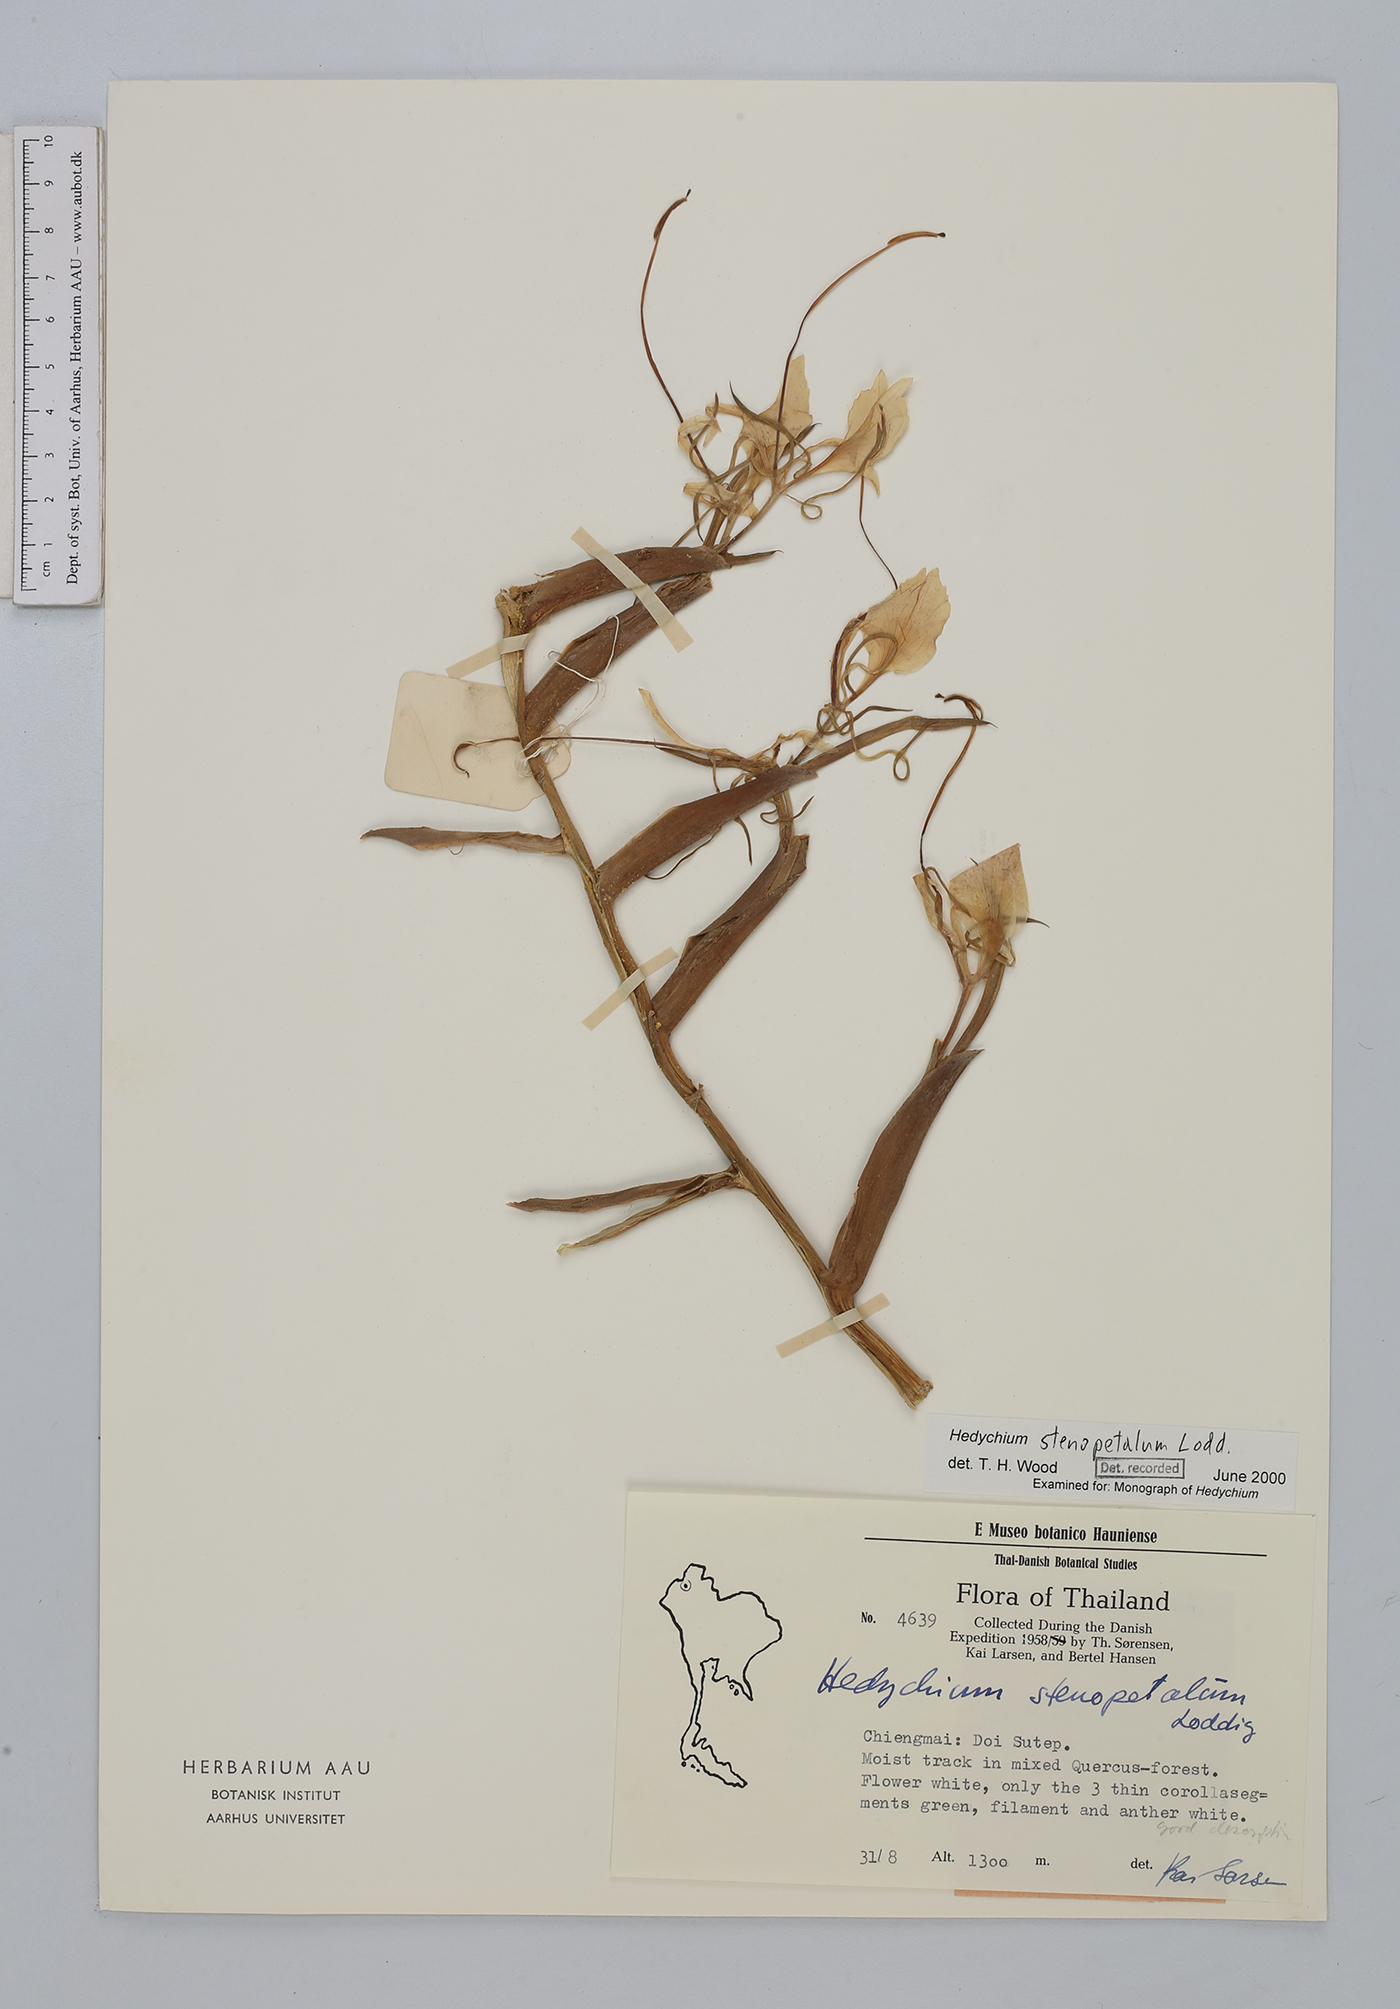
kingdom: Plantae
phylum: Tracheophyta
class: Liliopsida
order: Zingiberales
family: Zingiberaceae
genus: Hedychium
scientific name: Hedychium stenopetalum
